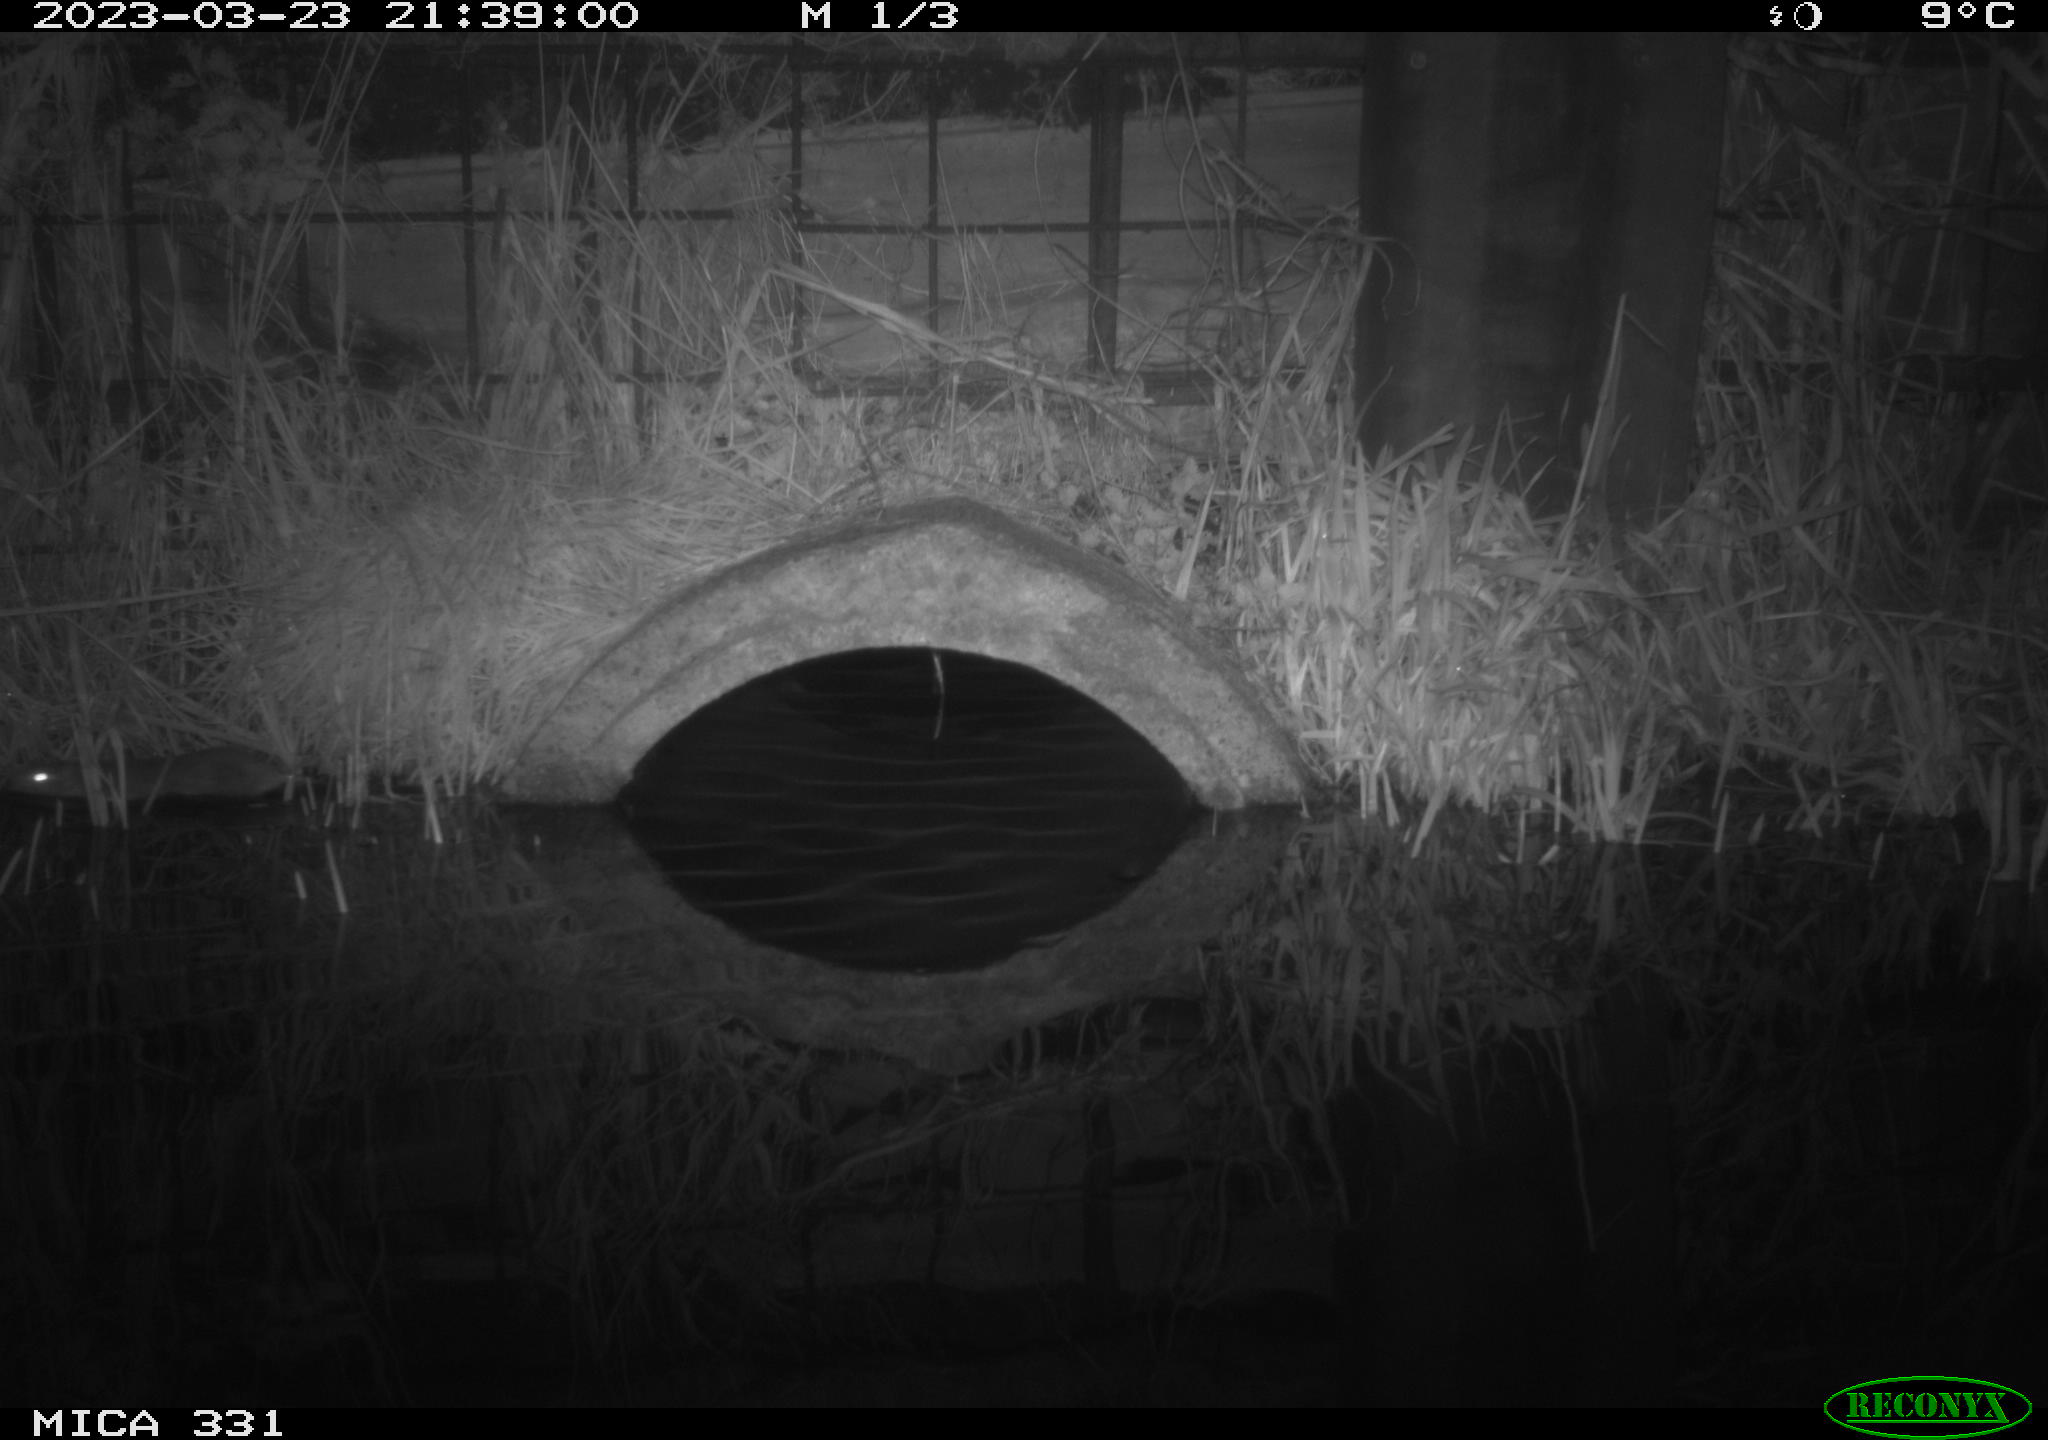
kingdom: Animalia
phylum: Chordata
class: Mammalia
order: Rodentia
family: Muridae
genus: Rattus
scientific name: Rattus norvegicus
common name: Brown rat
